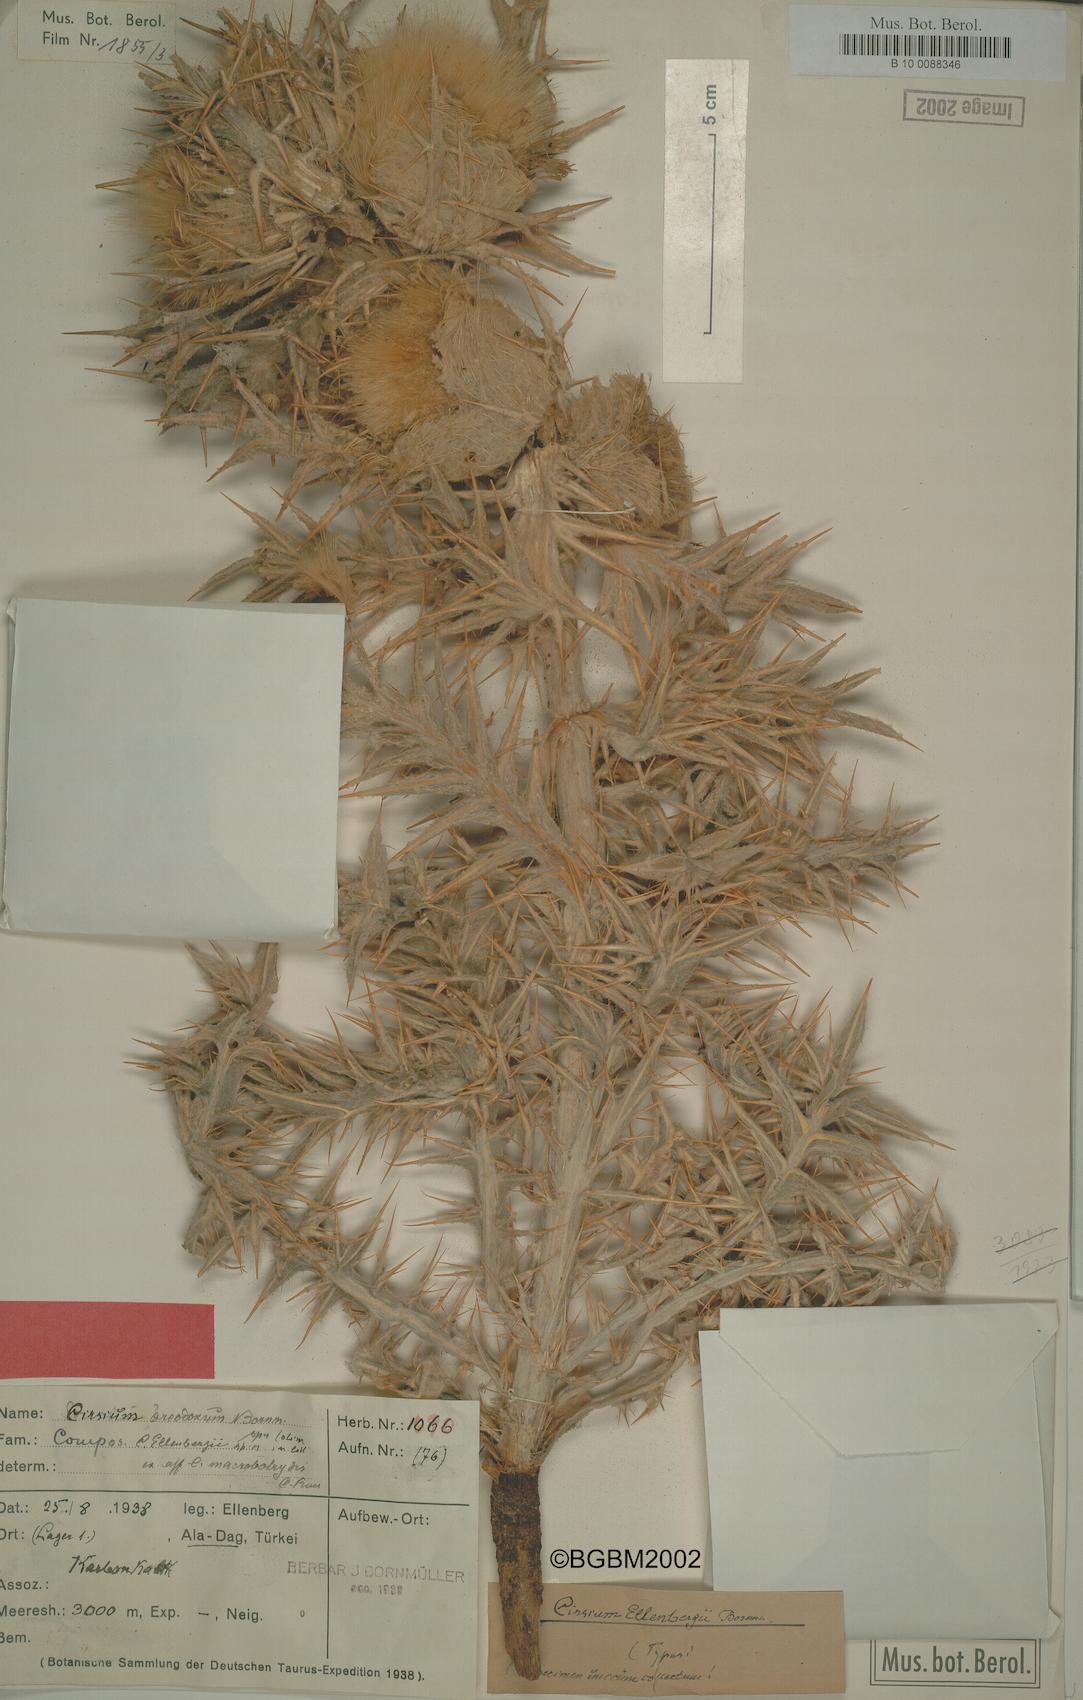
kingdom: Plantae
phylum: Tracheophyta
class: Magnoliopsida
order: Asterales
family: Asteraceae
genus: Lophiolepis
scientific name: Lophiolepis ellenbergii
